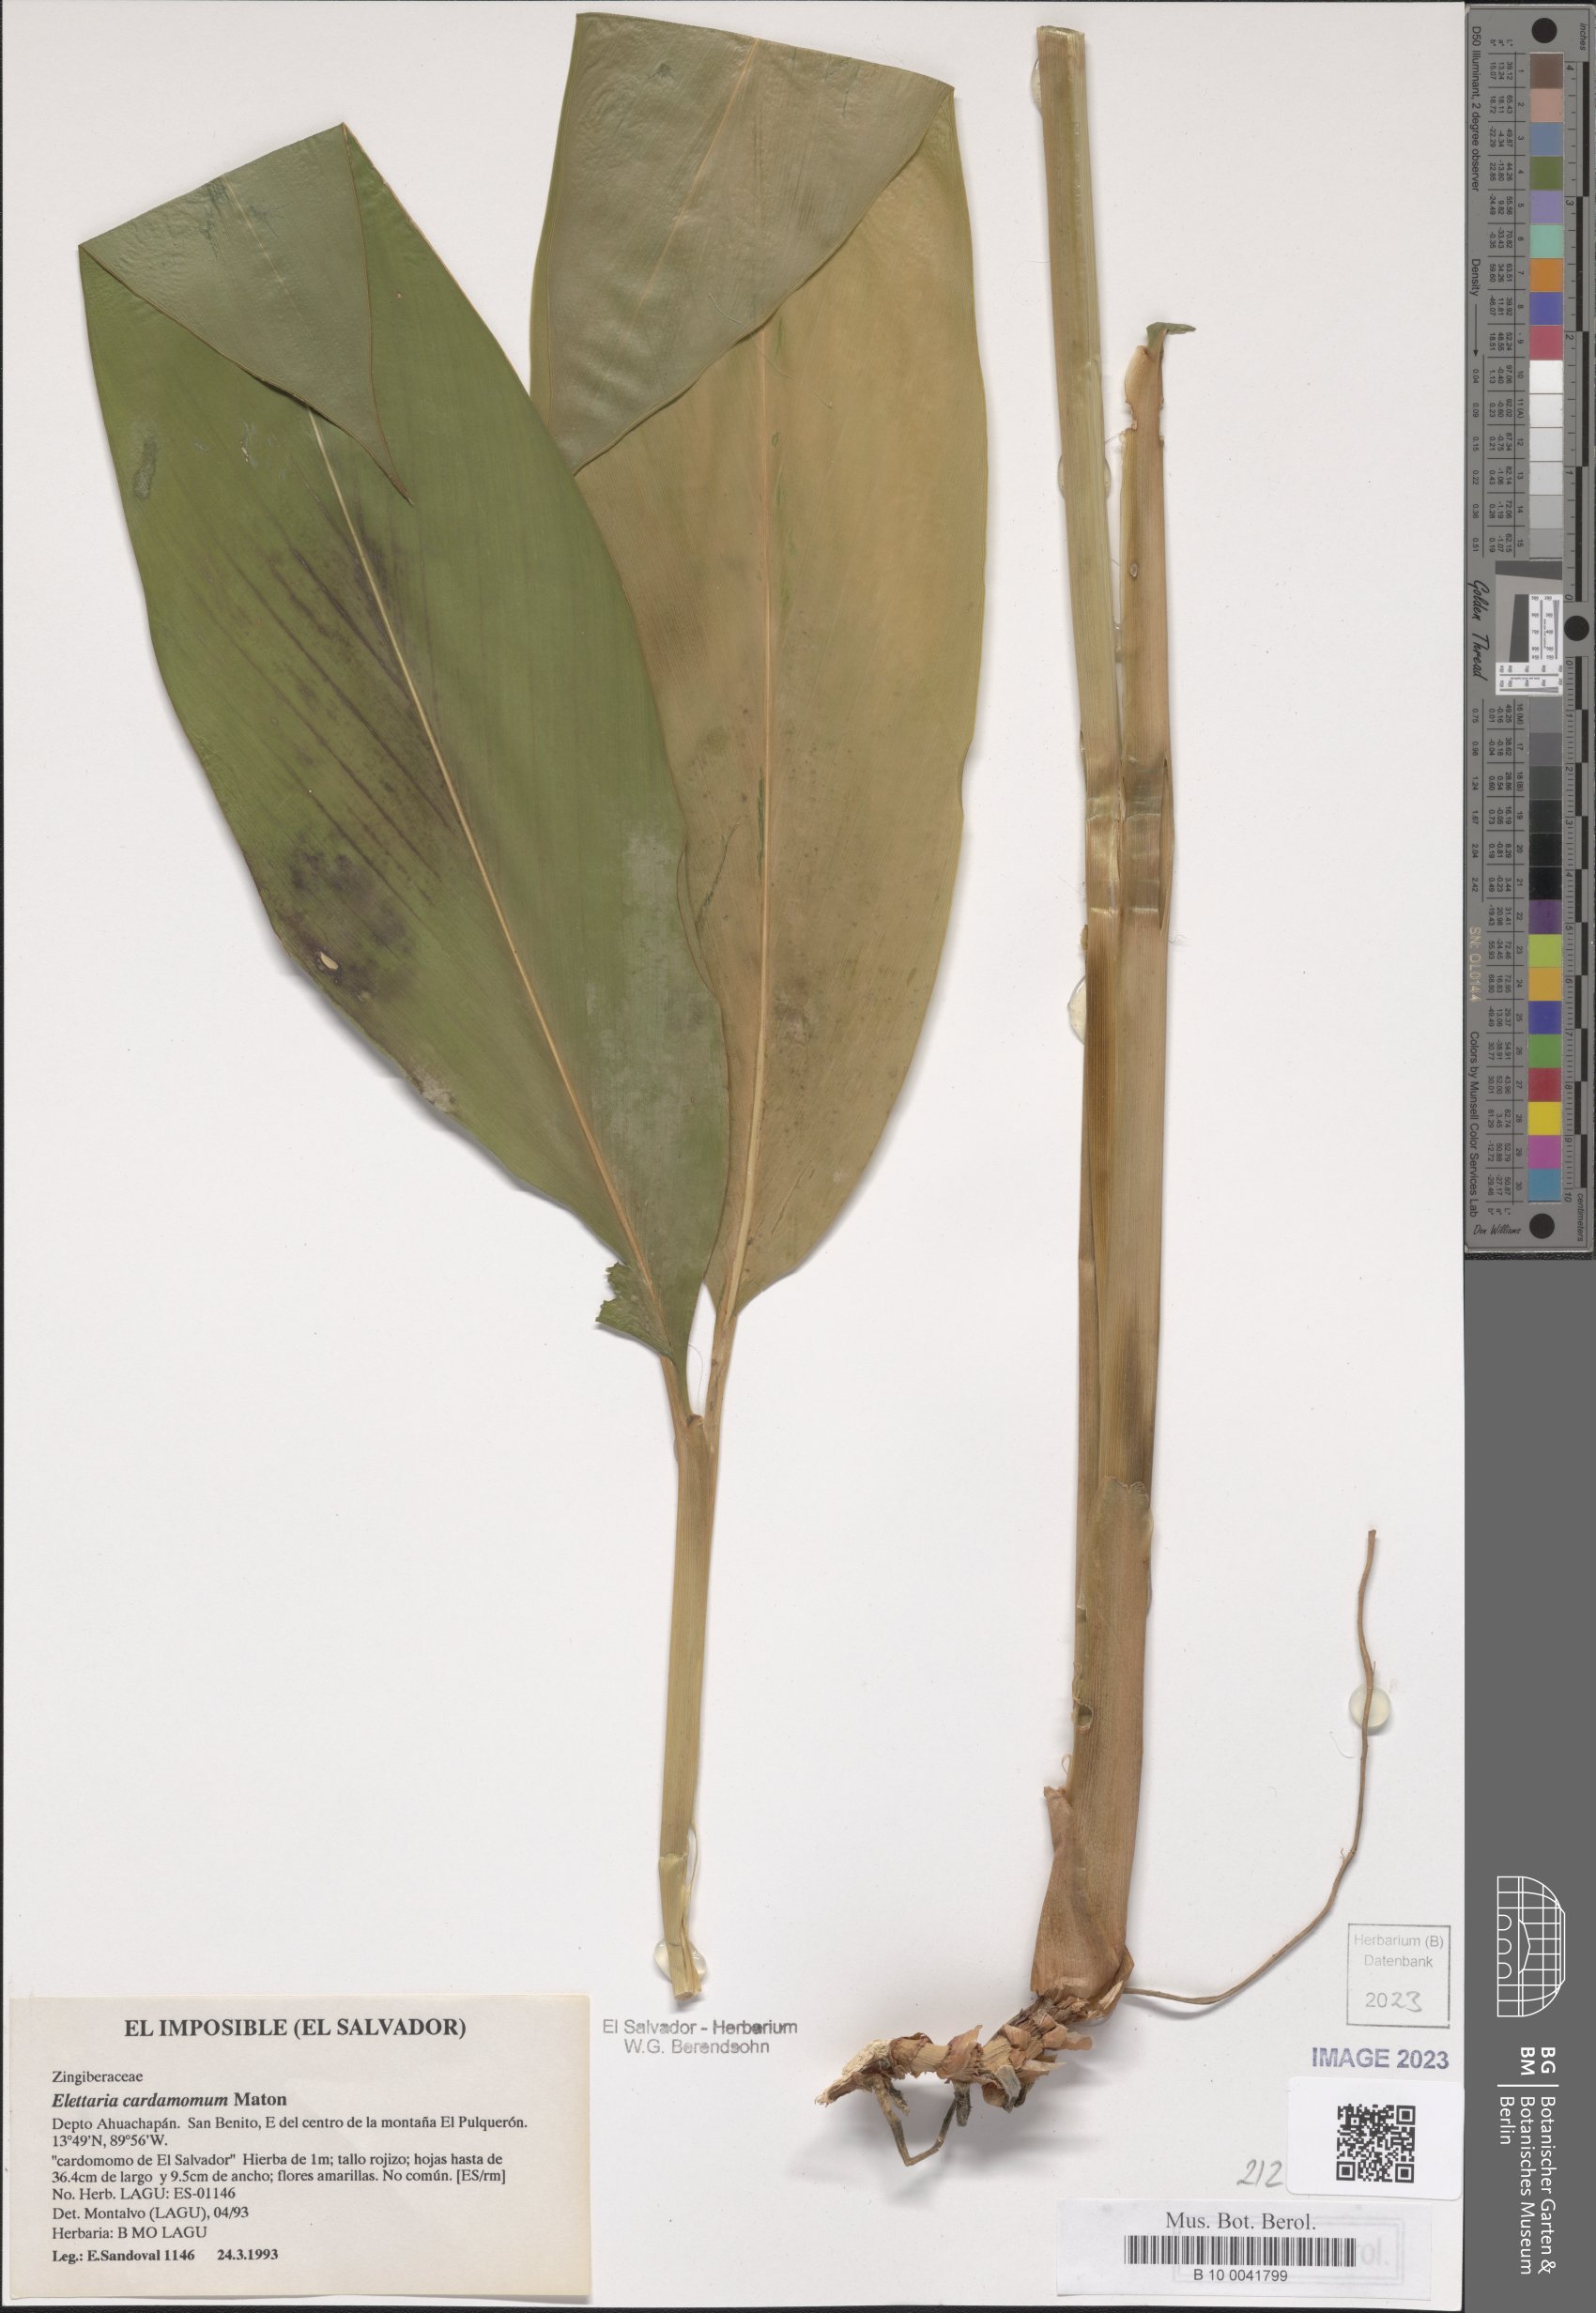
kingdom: Plantae
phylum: Tracheophyta
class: Liliopsida
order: Zingiberales
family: Zingiberaceae
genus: Renealmia
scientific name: Renealmia pacifica
